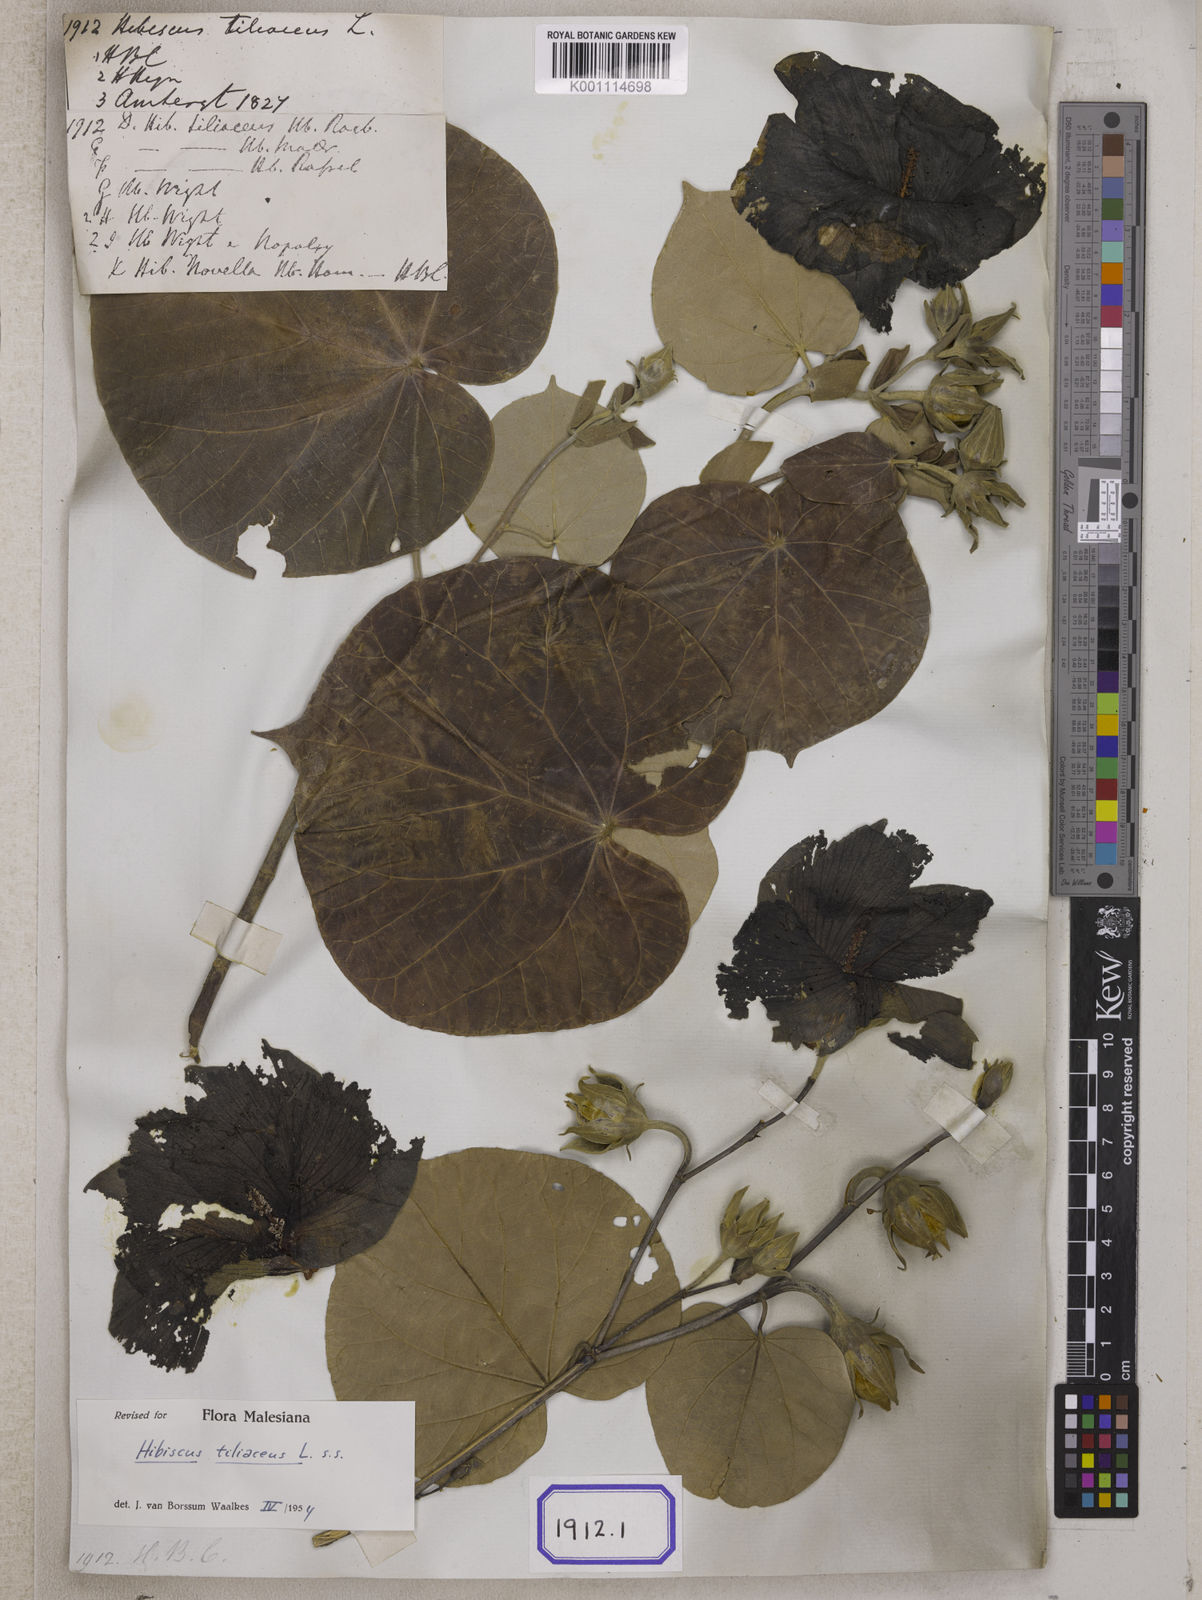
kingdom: Plantae
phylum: Tracheophyta
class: Magnoliopsida
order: Malvales
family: Malvaceae
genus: Talipariti
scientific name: Talipariti tiliaceum
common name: Sea hibiscus
